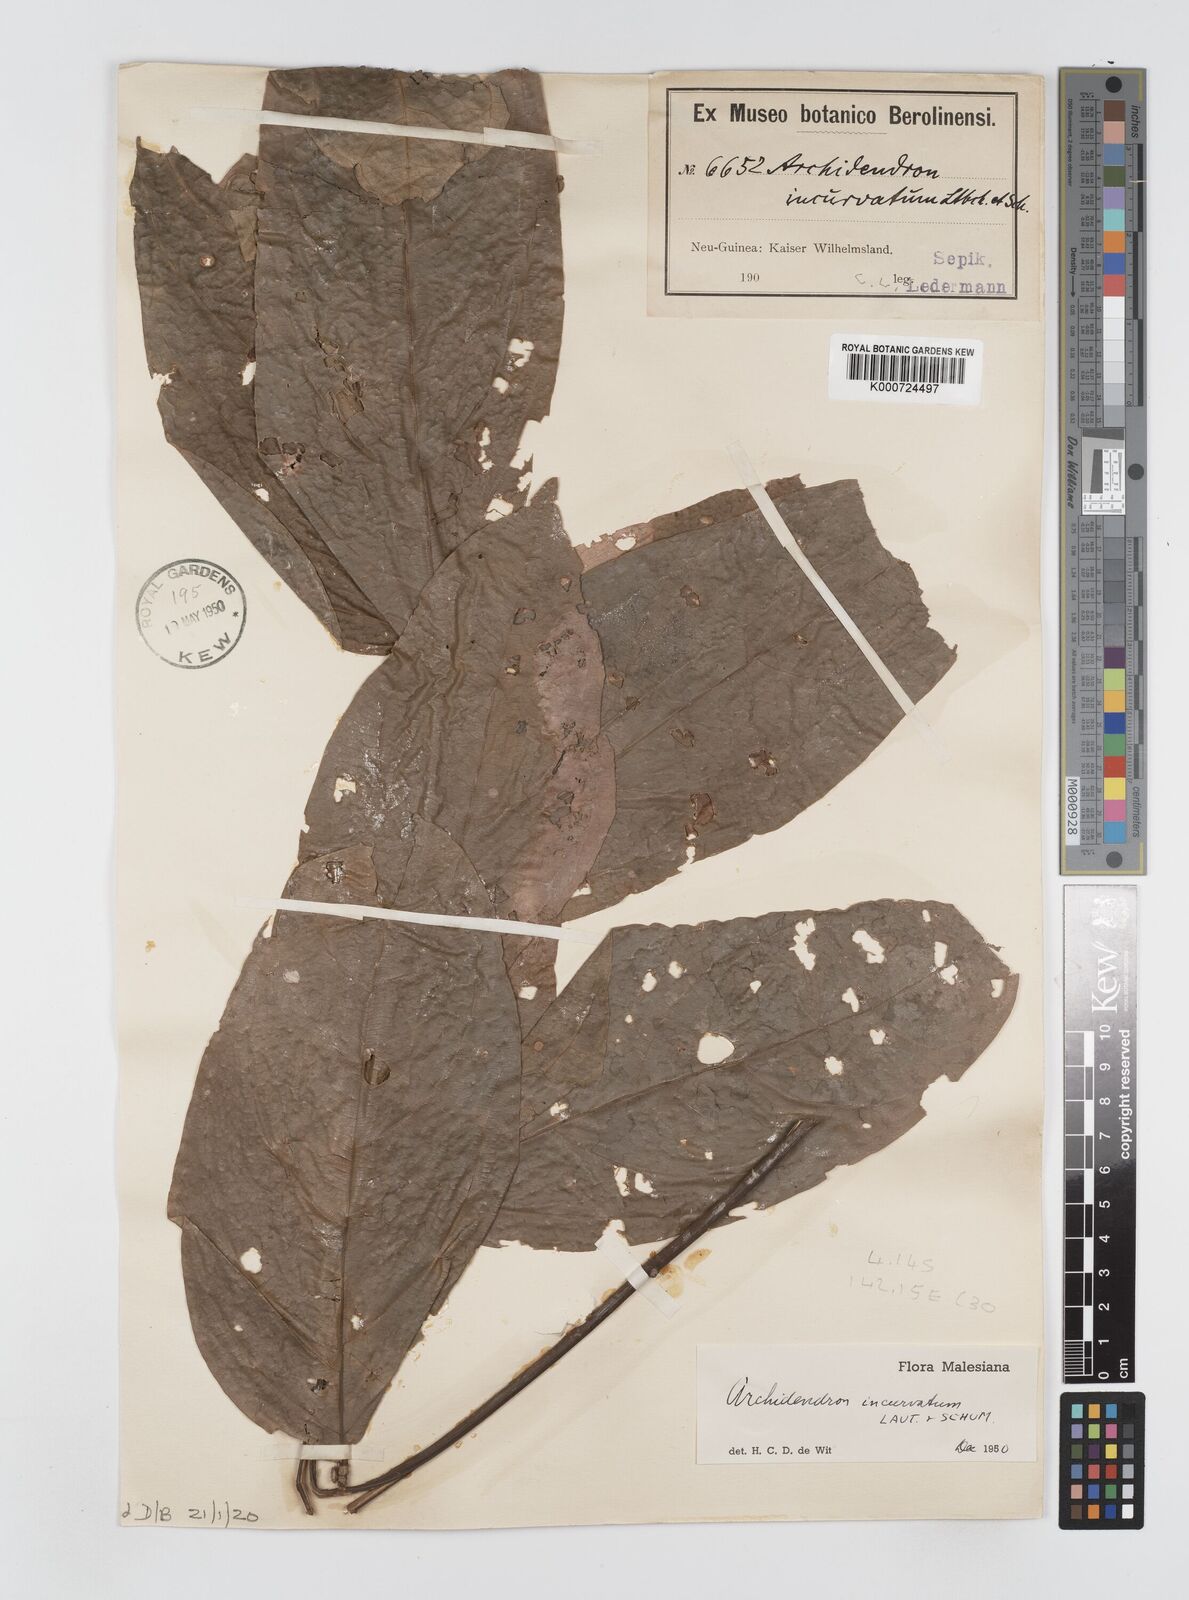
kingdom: Plantae
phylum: Tracheophyta
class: Magnoliopsida
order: Fabales
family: Fabaceae
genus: Archidendron
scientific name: Archidendron aruense
